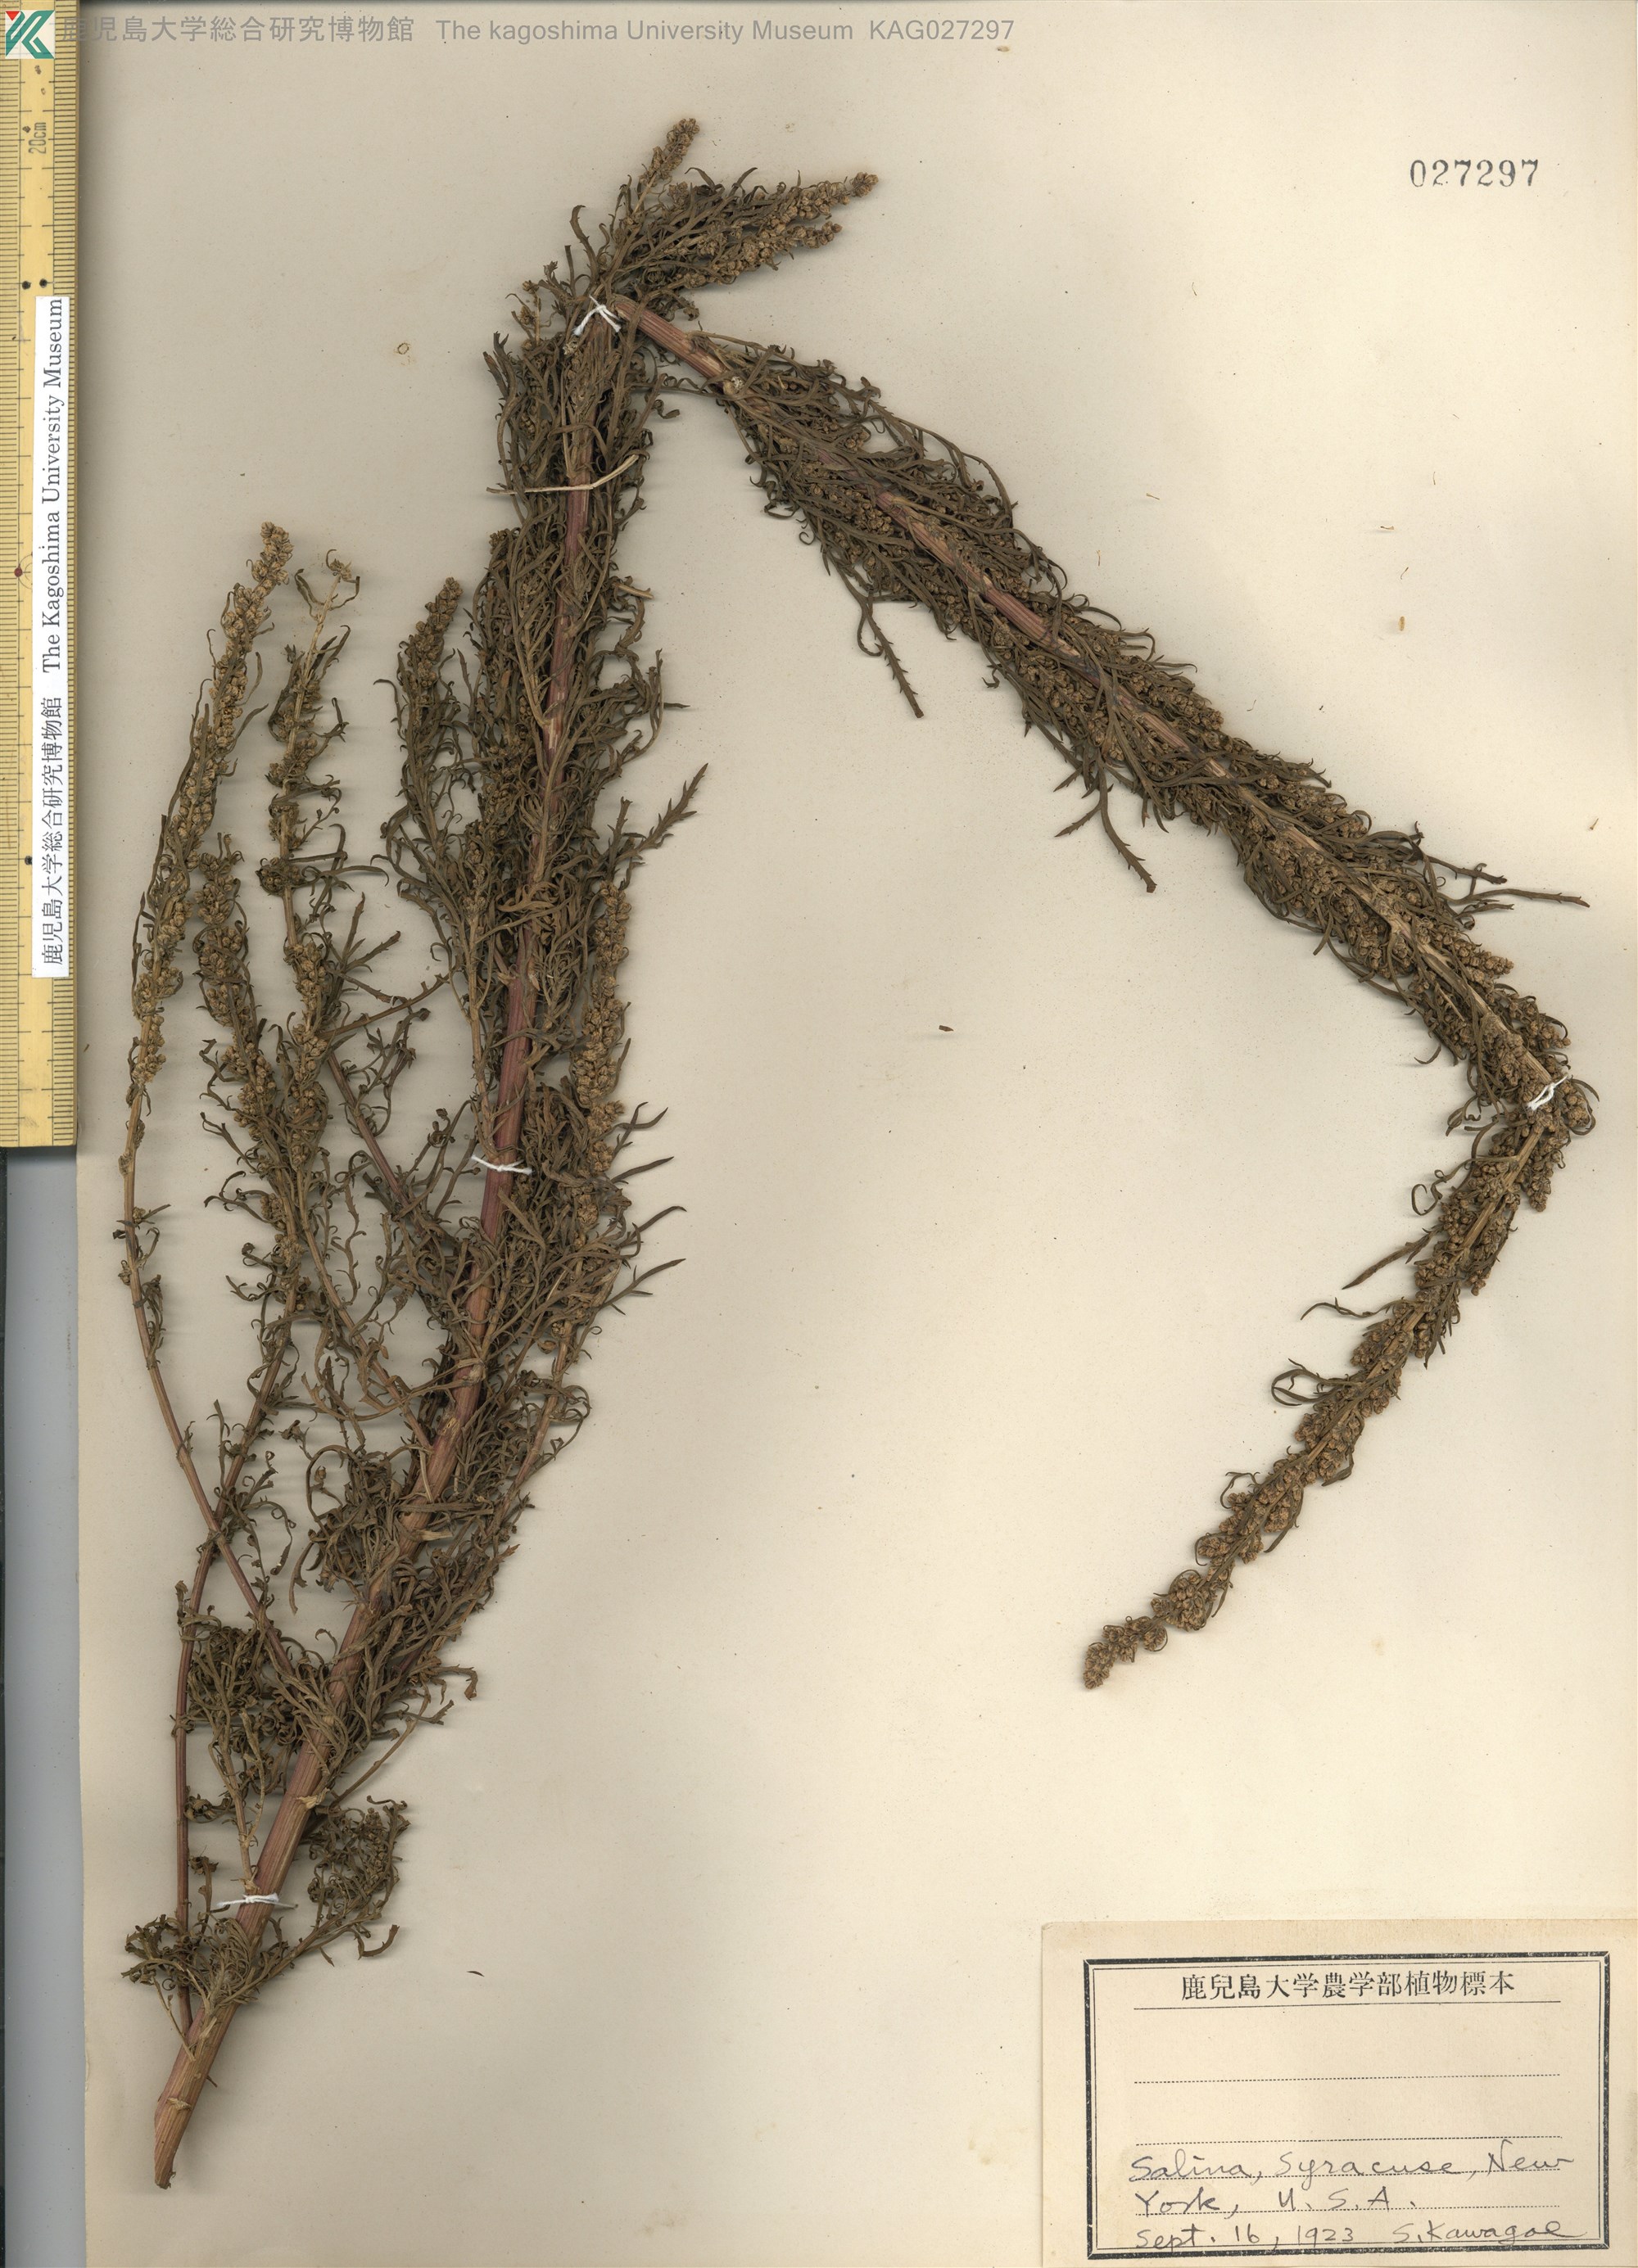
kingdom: Plantae
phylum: Tracheophyta
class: Magnoliopsida
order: Asterales
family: Asteraceae
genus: Artemisia
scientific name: Artemisia
